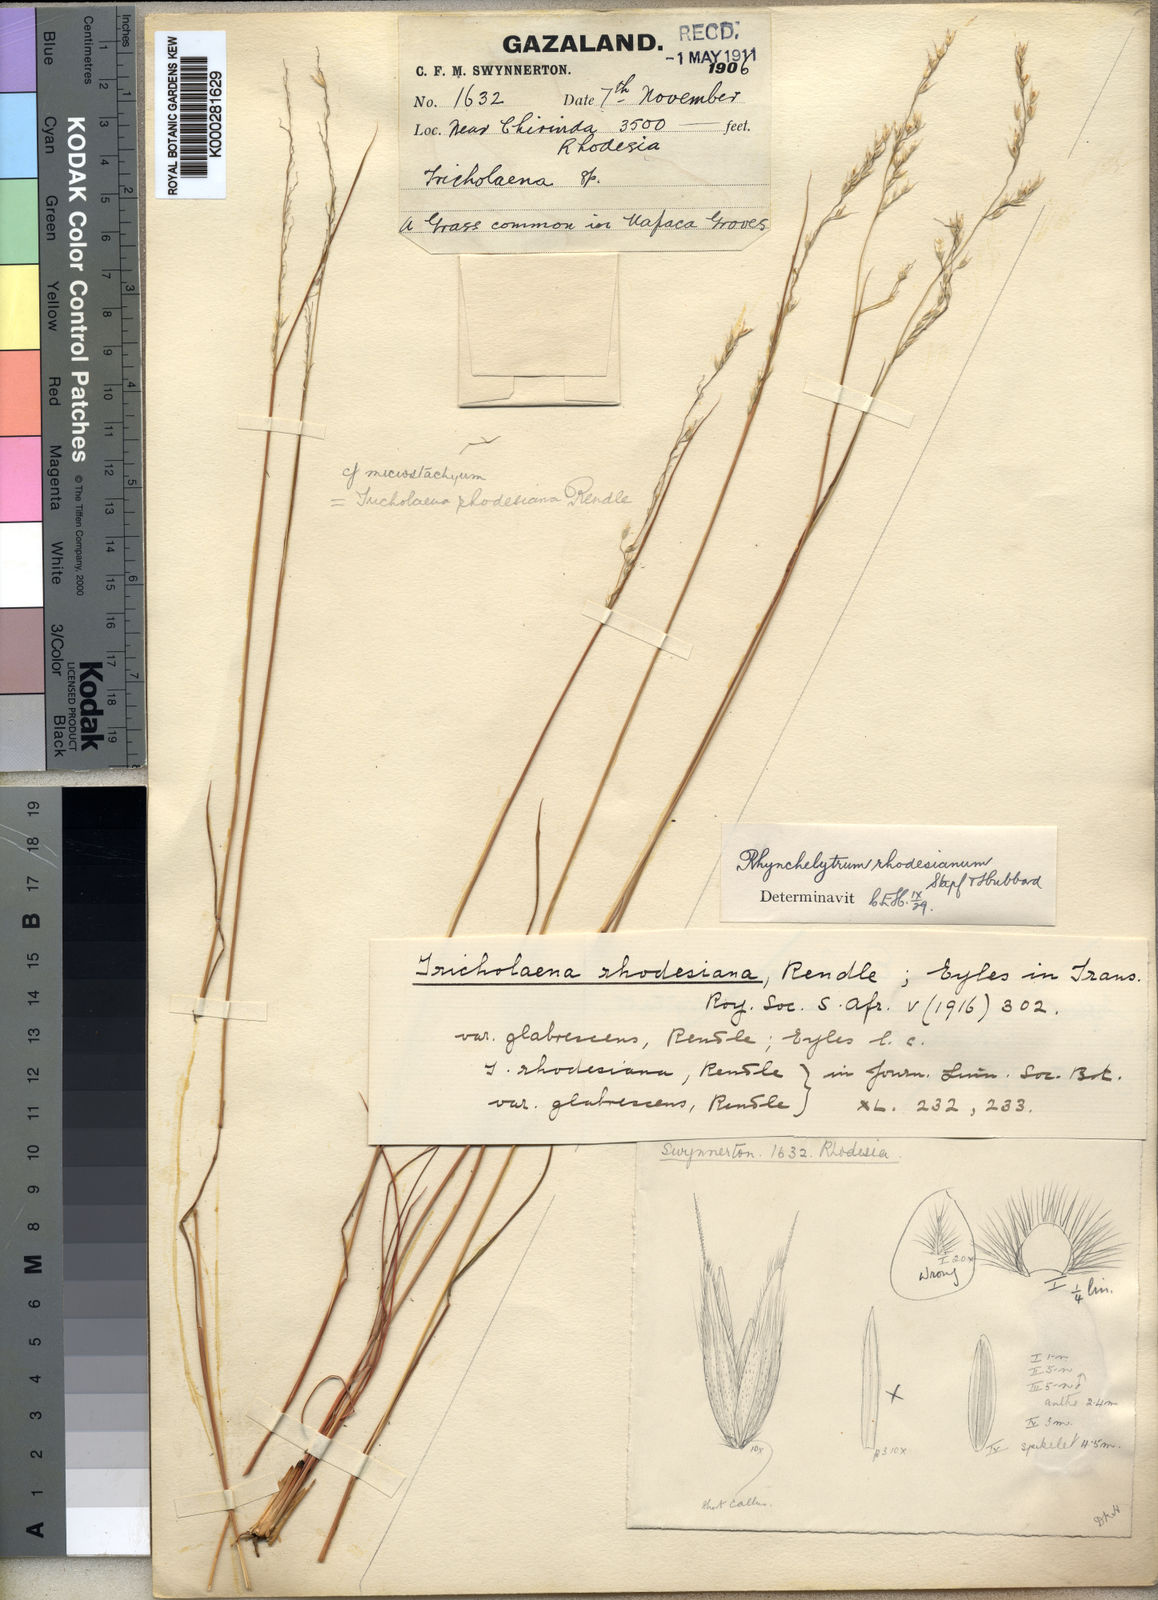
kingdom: Plantae
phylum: Tracheophyta
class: Liliopsida
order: Poales
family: Poaceae
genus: Melinis
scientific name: Melinis nerviglumis
